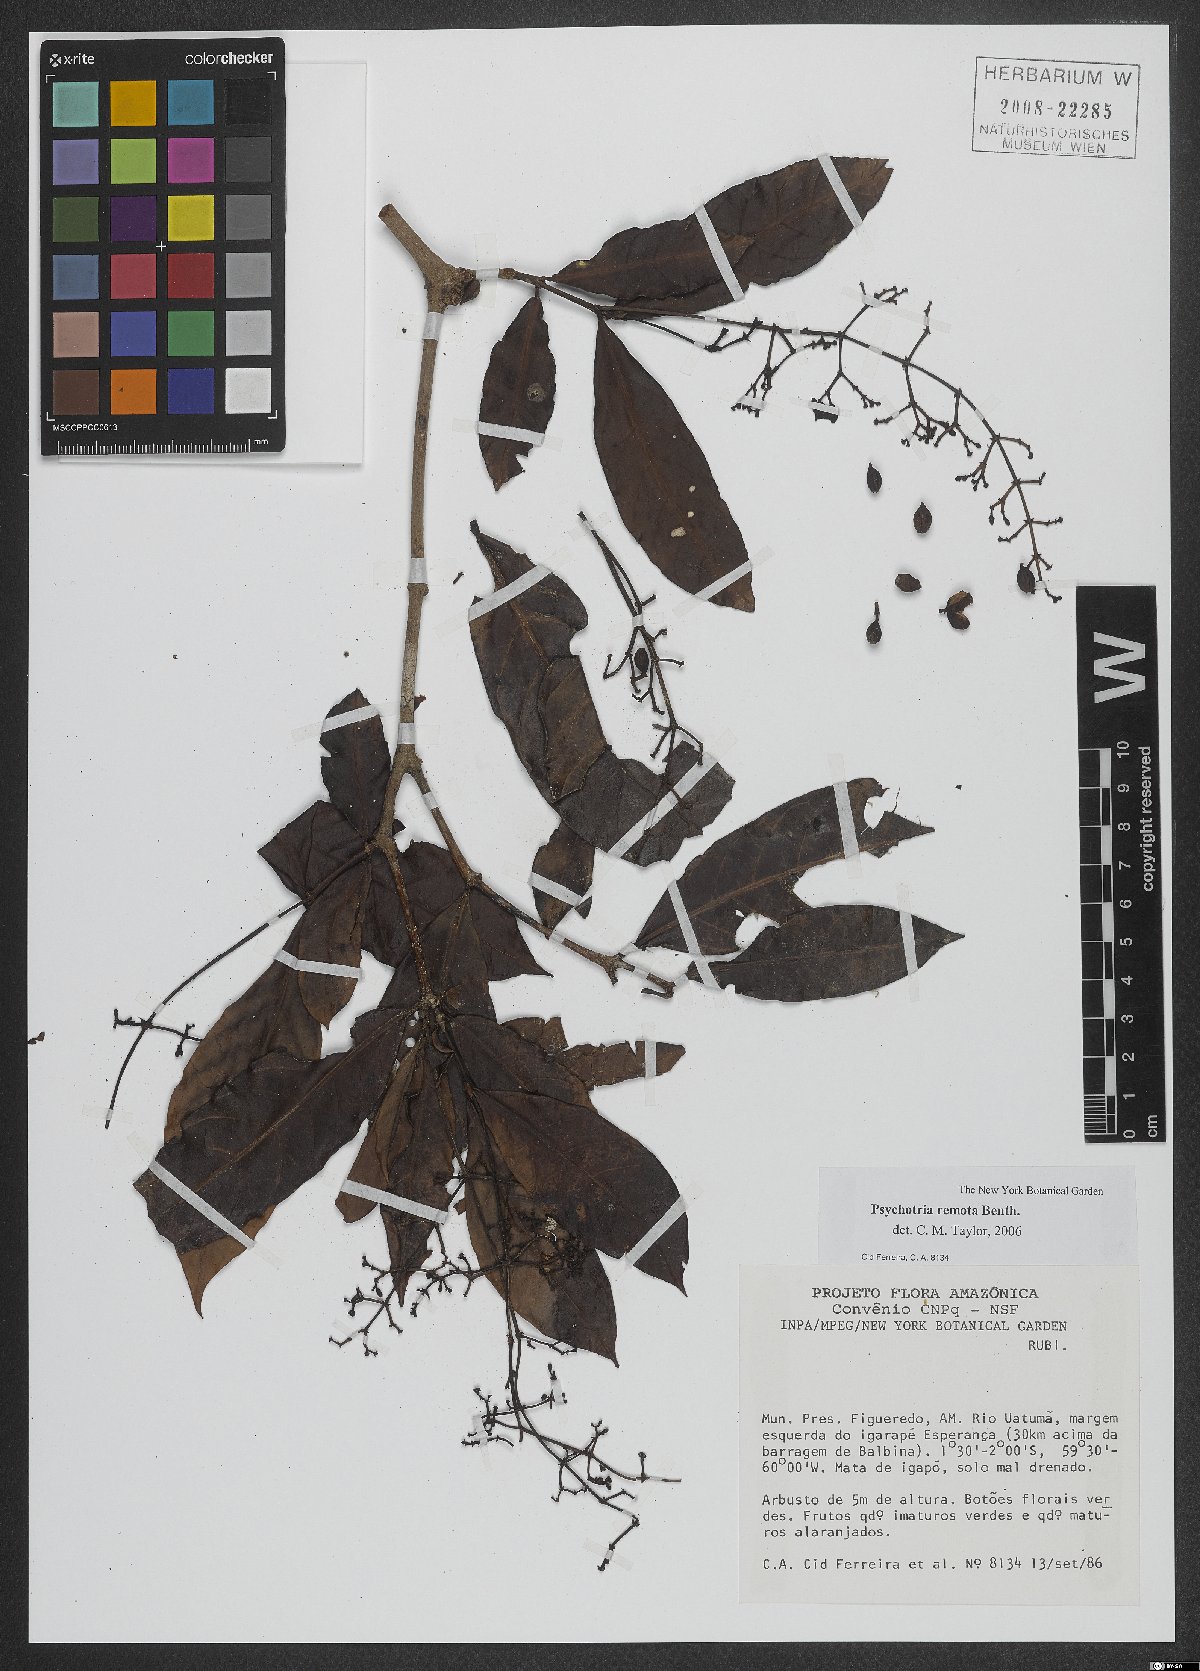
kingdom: Plantae
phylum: Tracheophyta
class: Magnoliopsida
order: Gentianales
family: Rubiaceae
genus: Psychotria
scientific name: Psychotria remota
